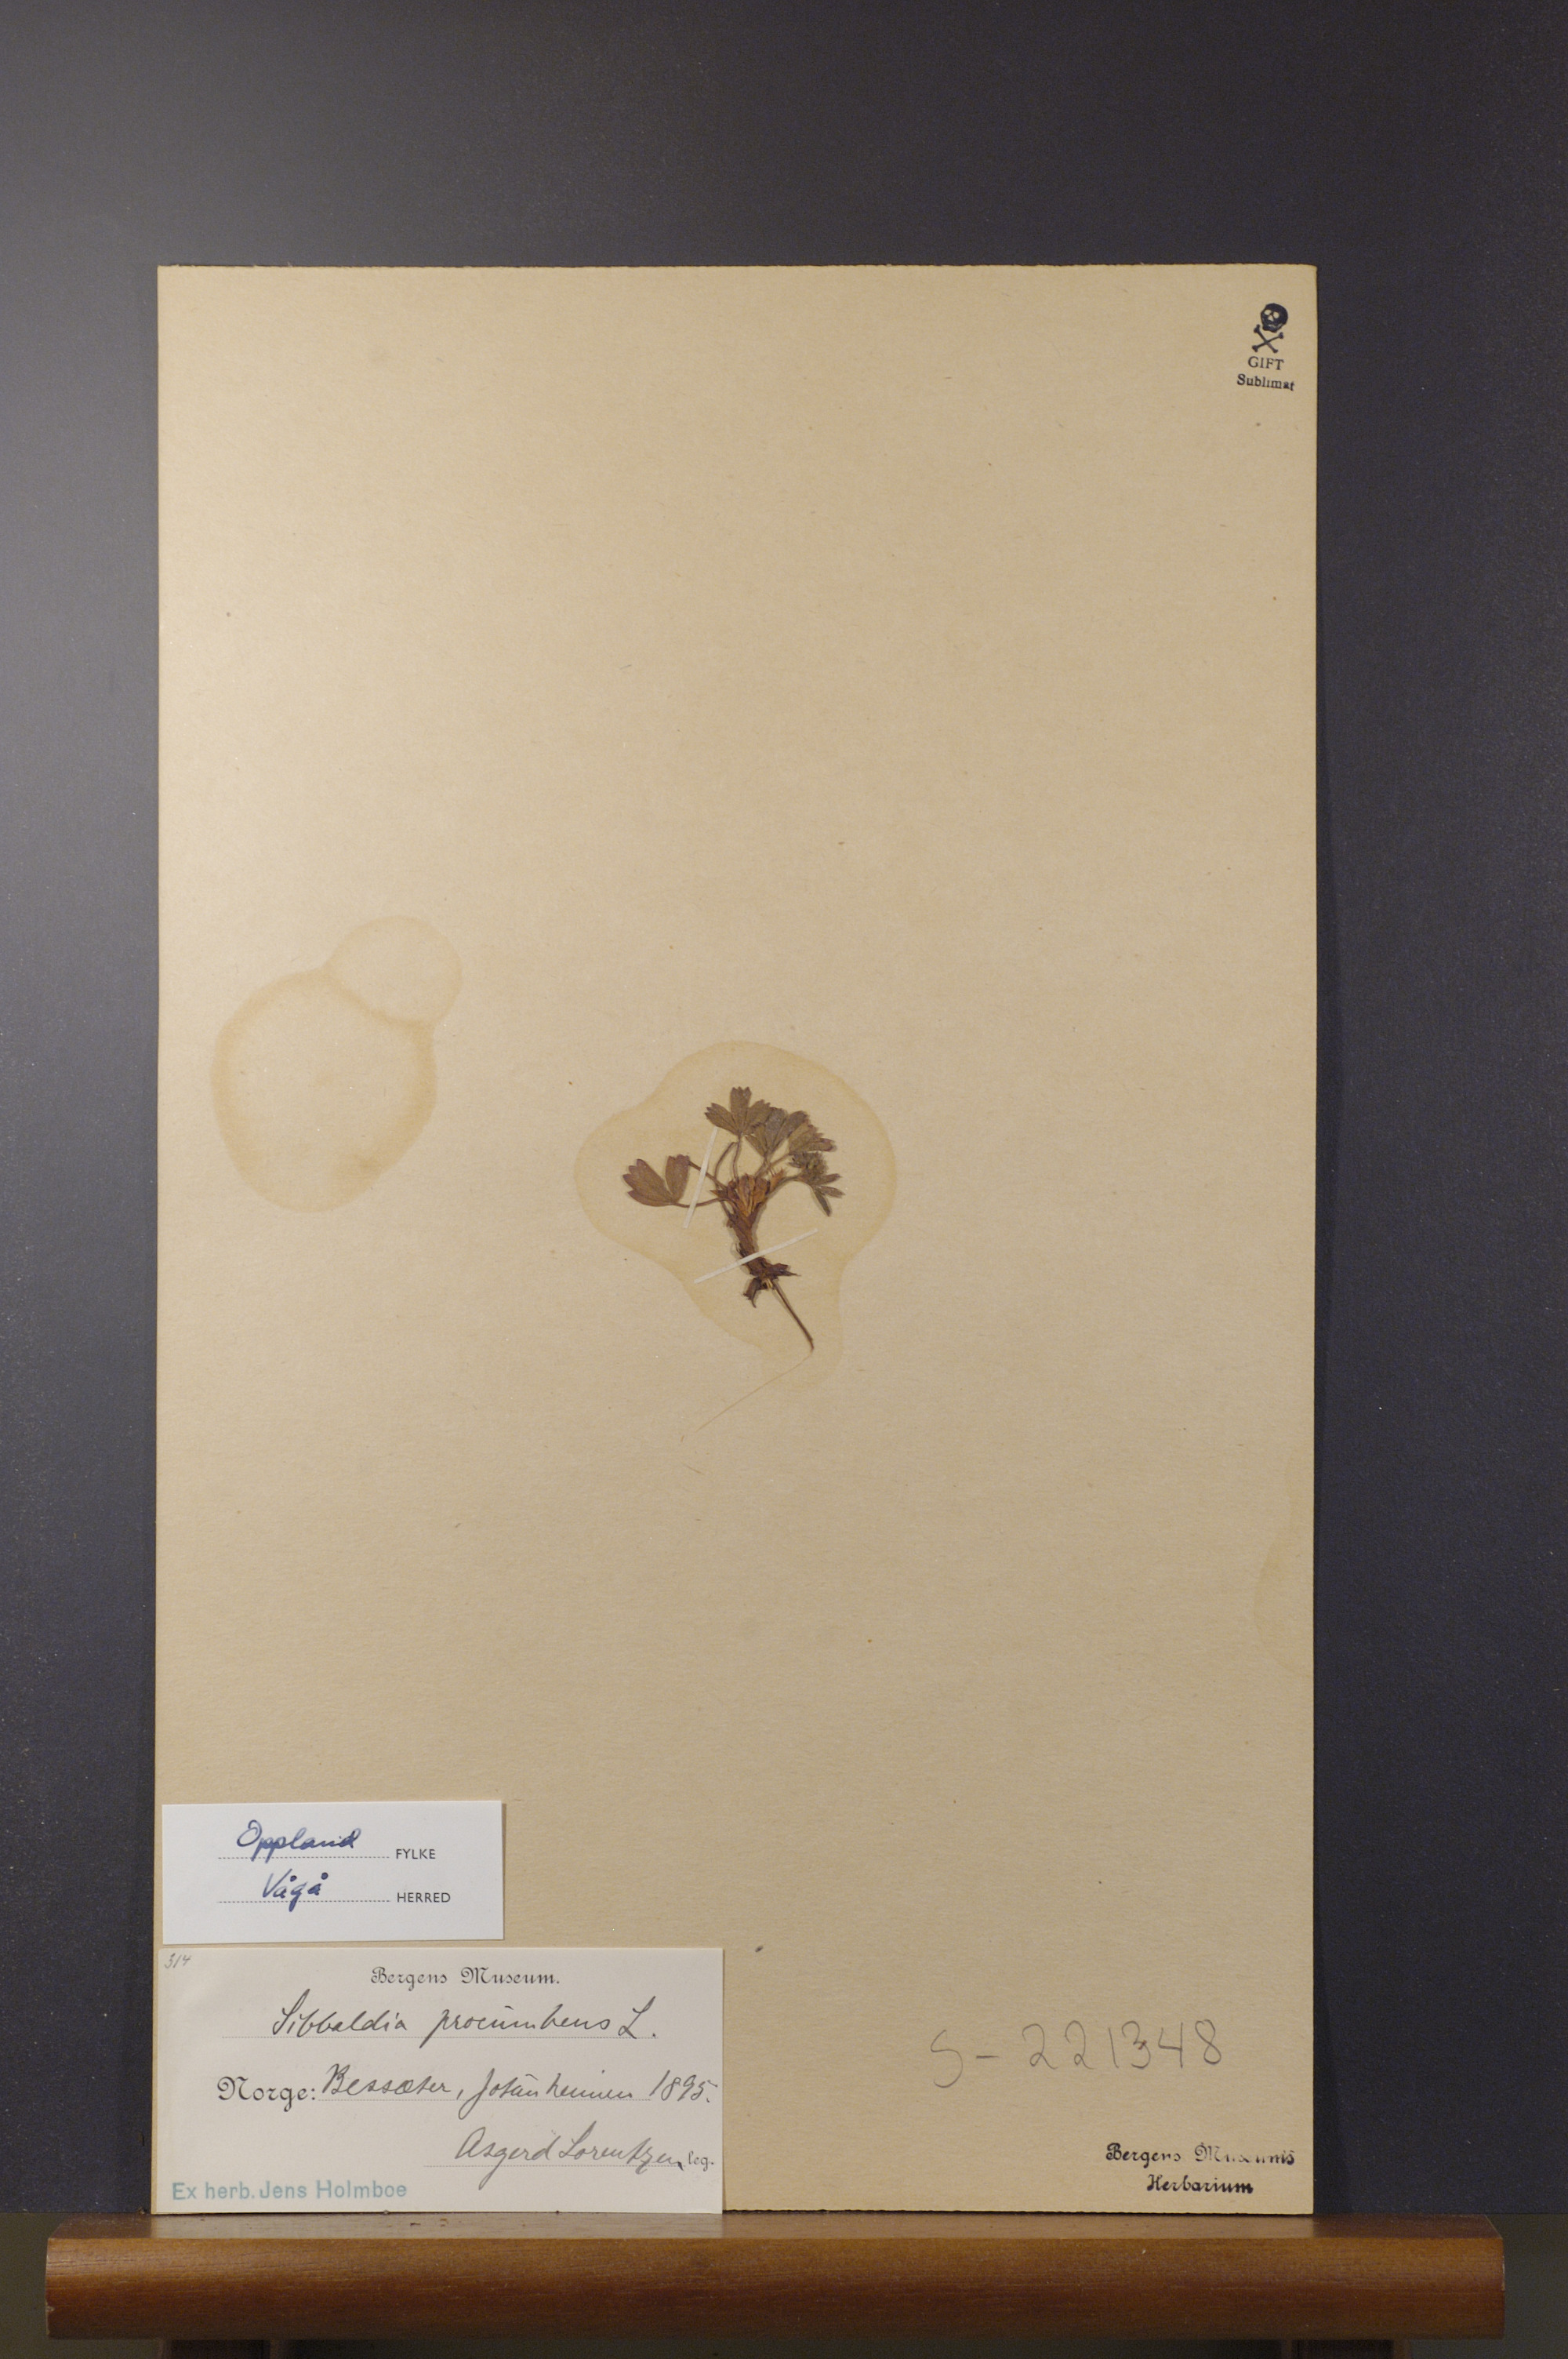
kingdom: Plantae
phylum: Tracheophyta
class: Magnoliopsida
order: Rosales
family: Rosaceae
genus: Sibbaldia
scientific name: Sibbaldia procumbens
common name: Creeping sibbaldia
